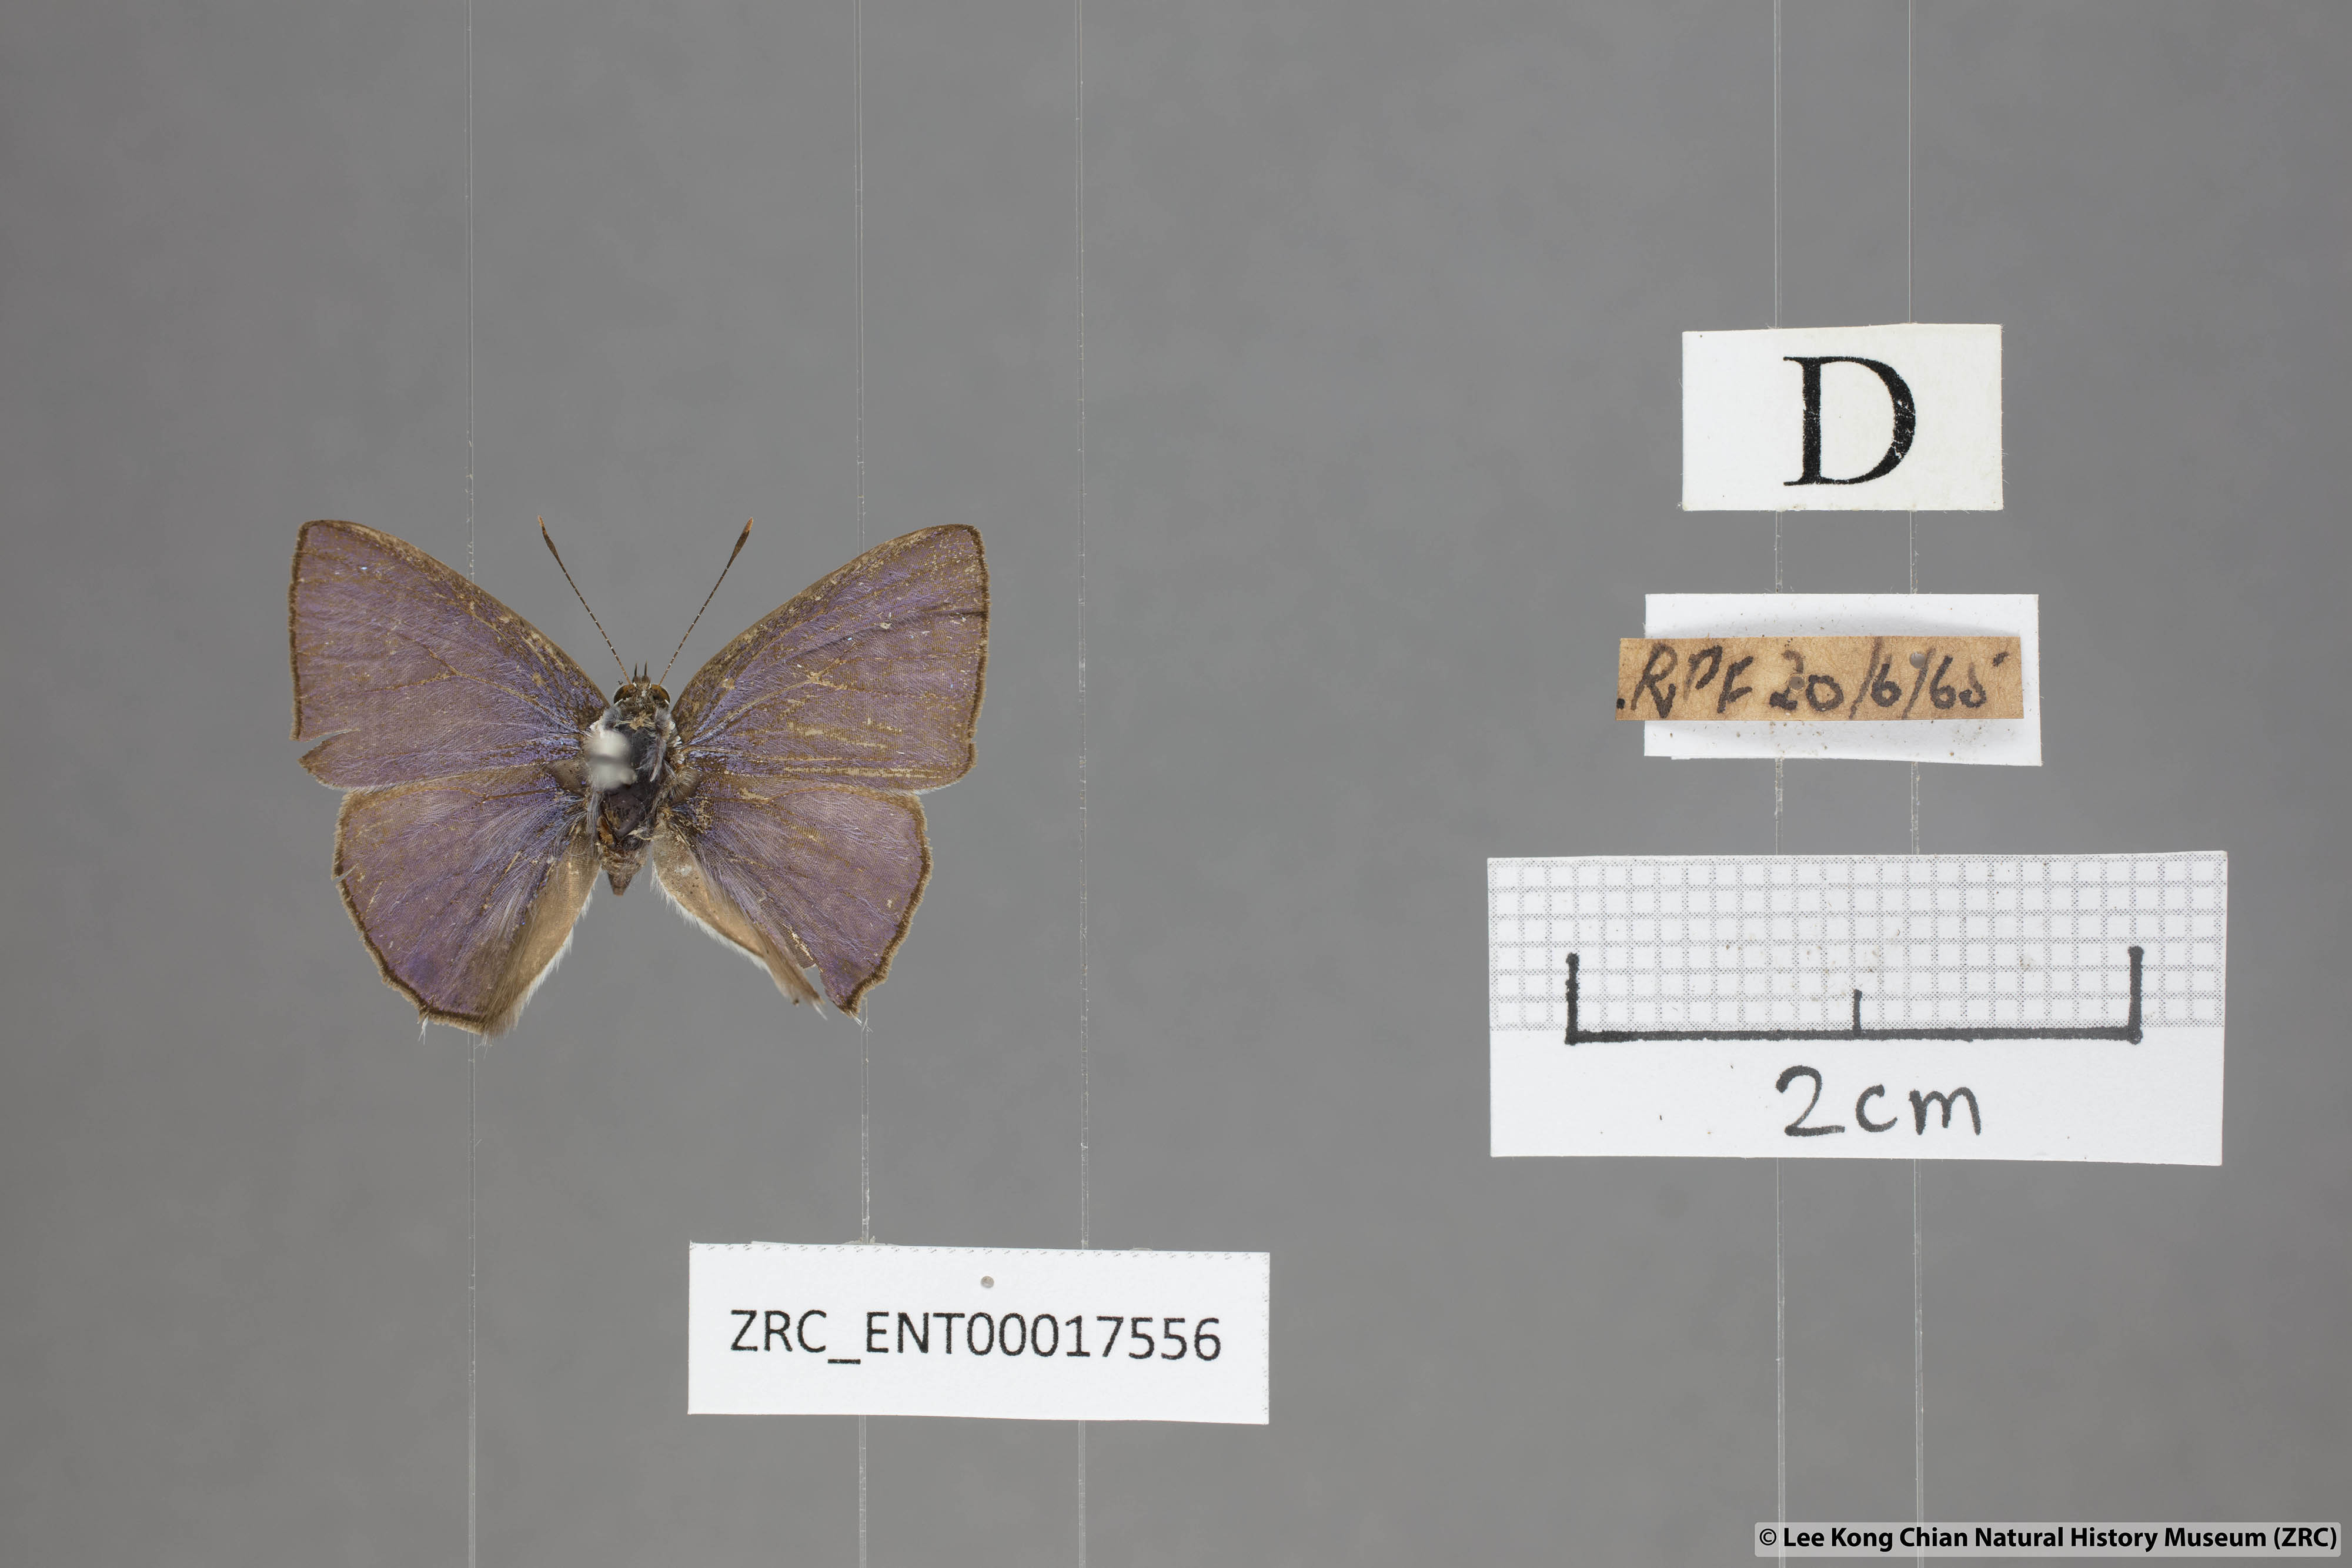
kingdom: Animalia
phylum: Arthropoda
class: Insecta
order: Lepidoptera
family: Lycaenidae
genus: Anthene
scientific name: Anthene lycaenoides
